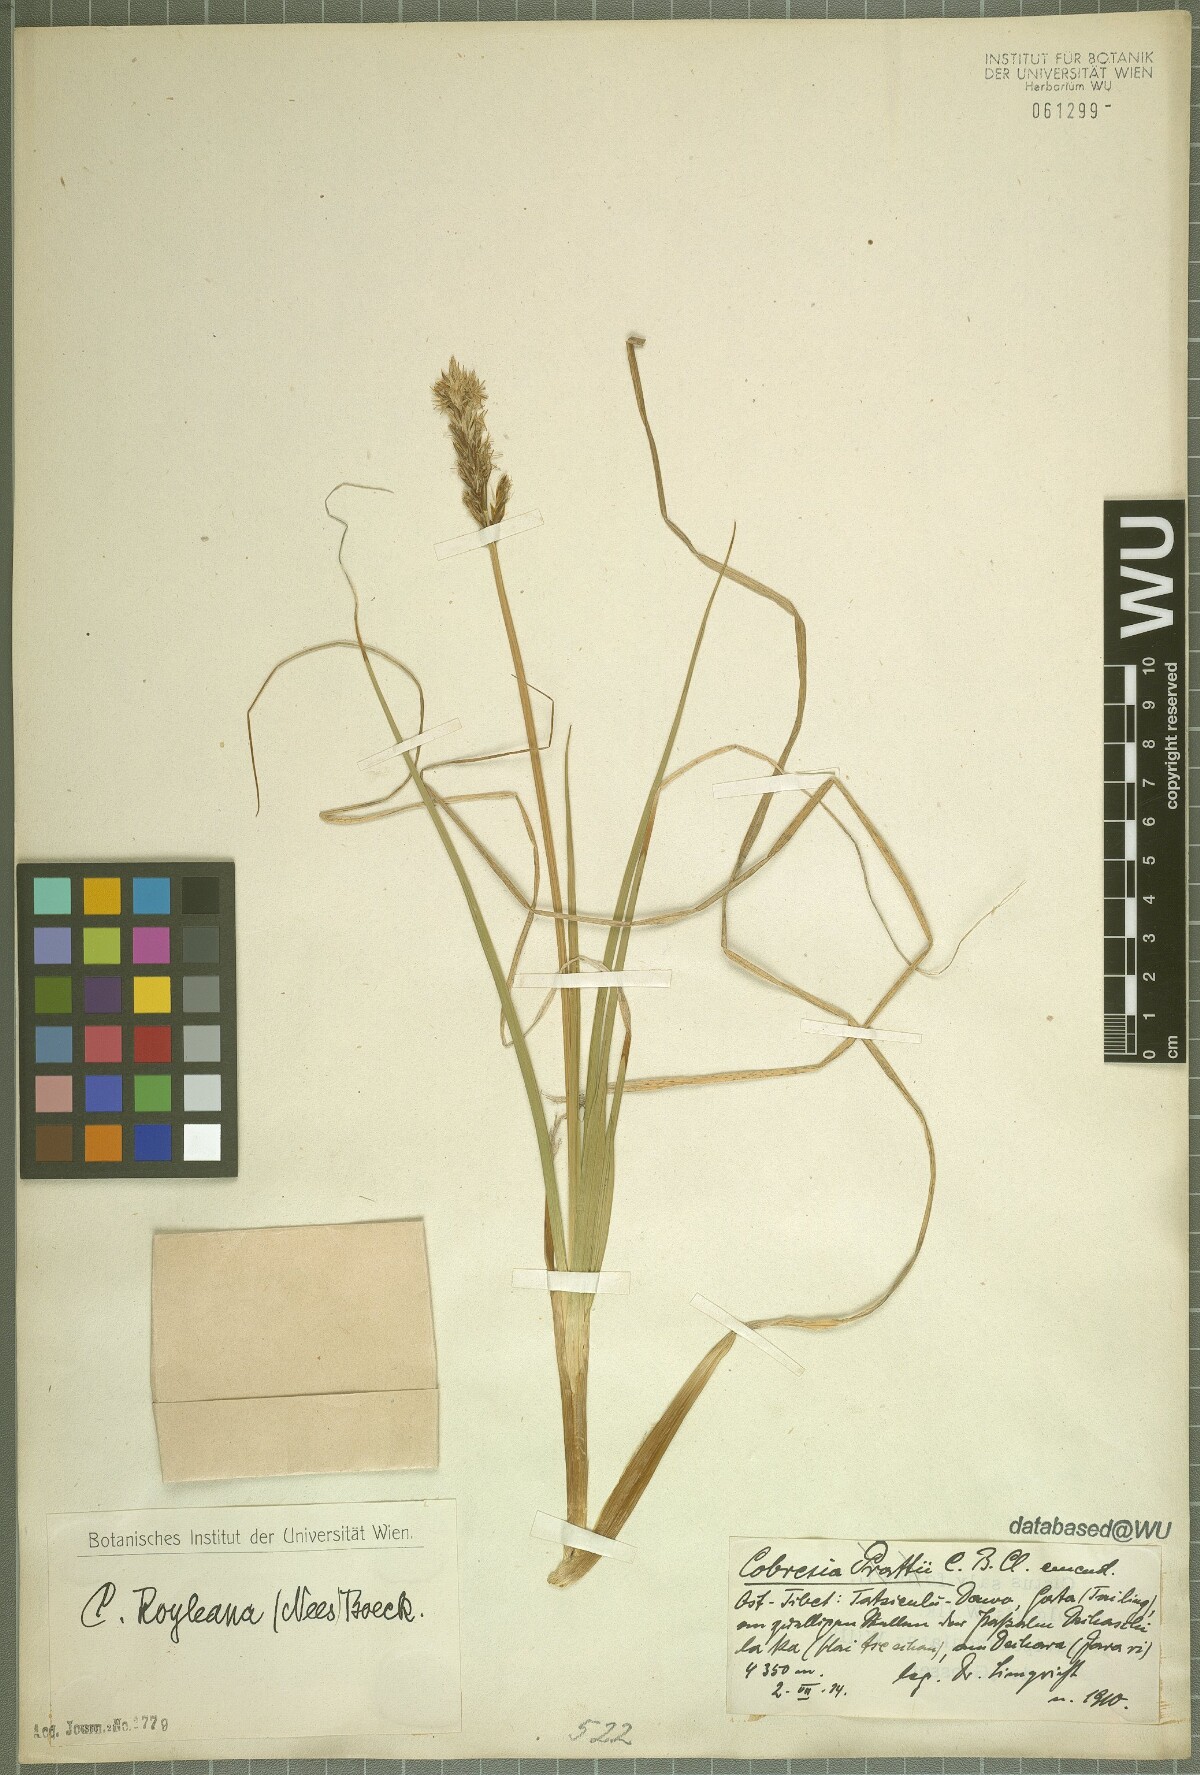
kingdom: Plantae
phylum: Tracheophyta
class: Liliopsida
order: Poales
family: Cyperaceae
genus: Carex
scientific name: Carex kokanica
